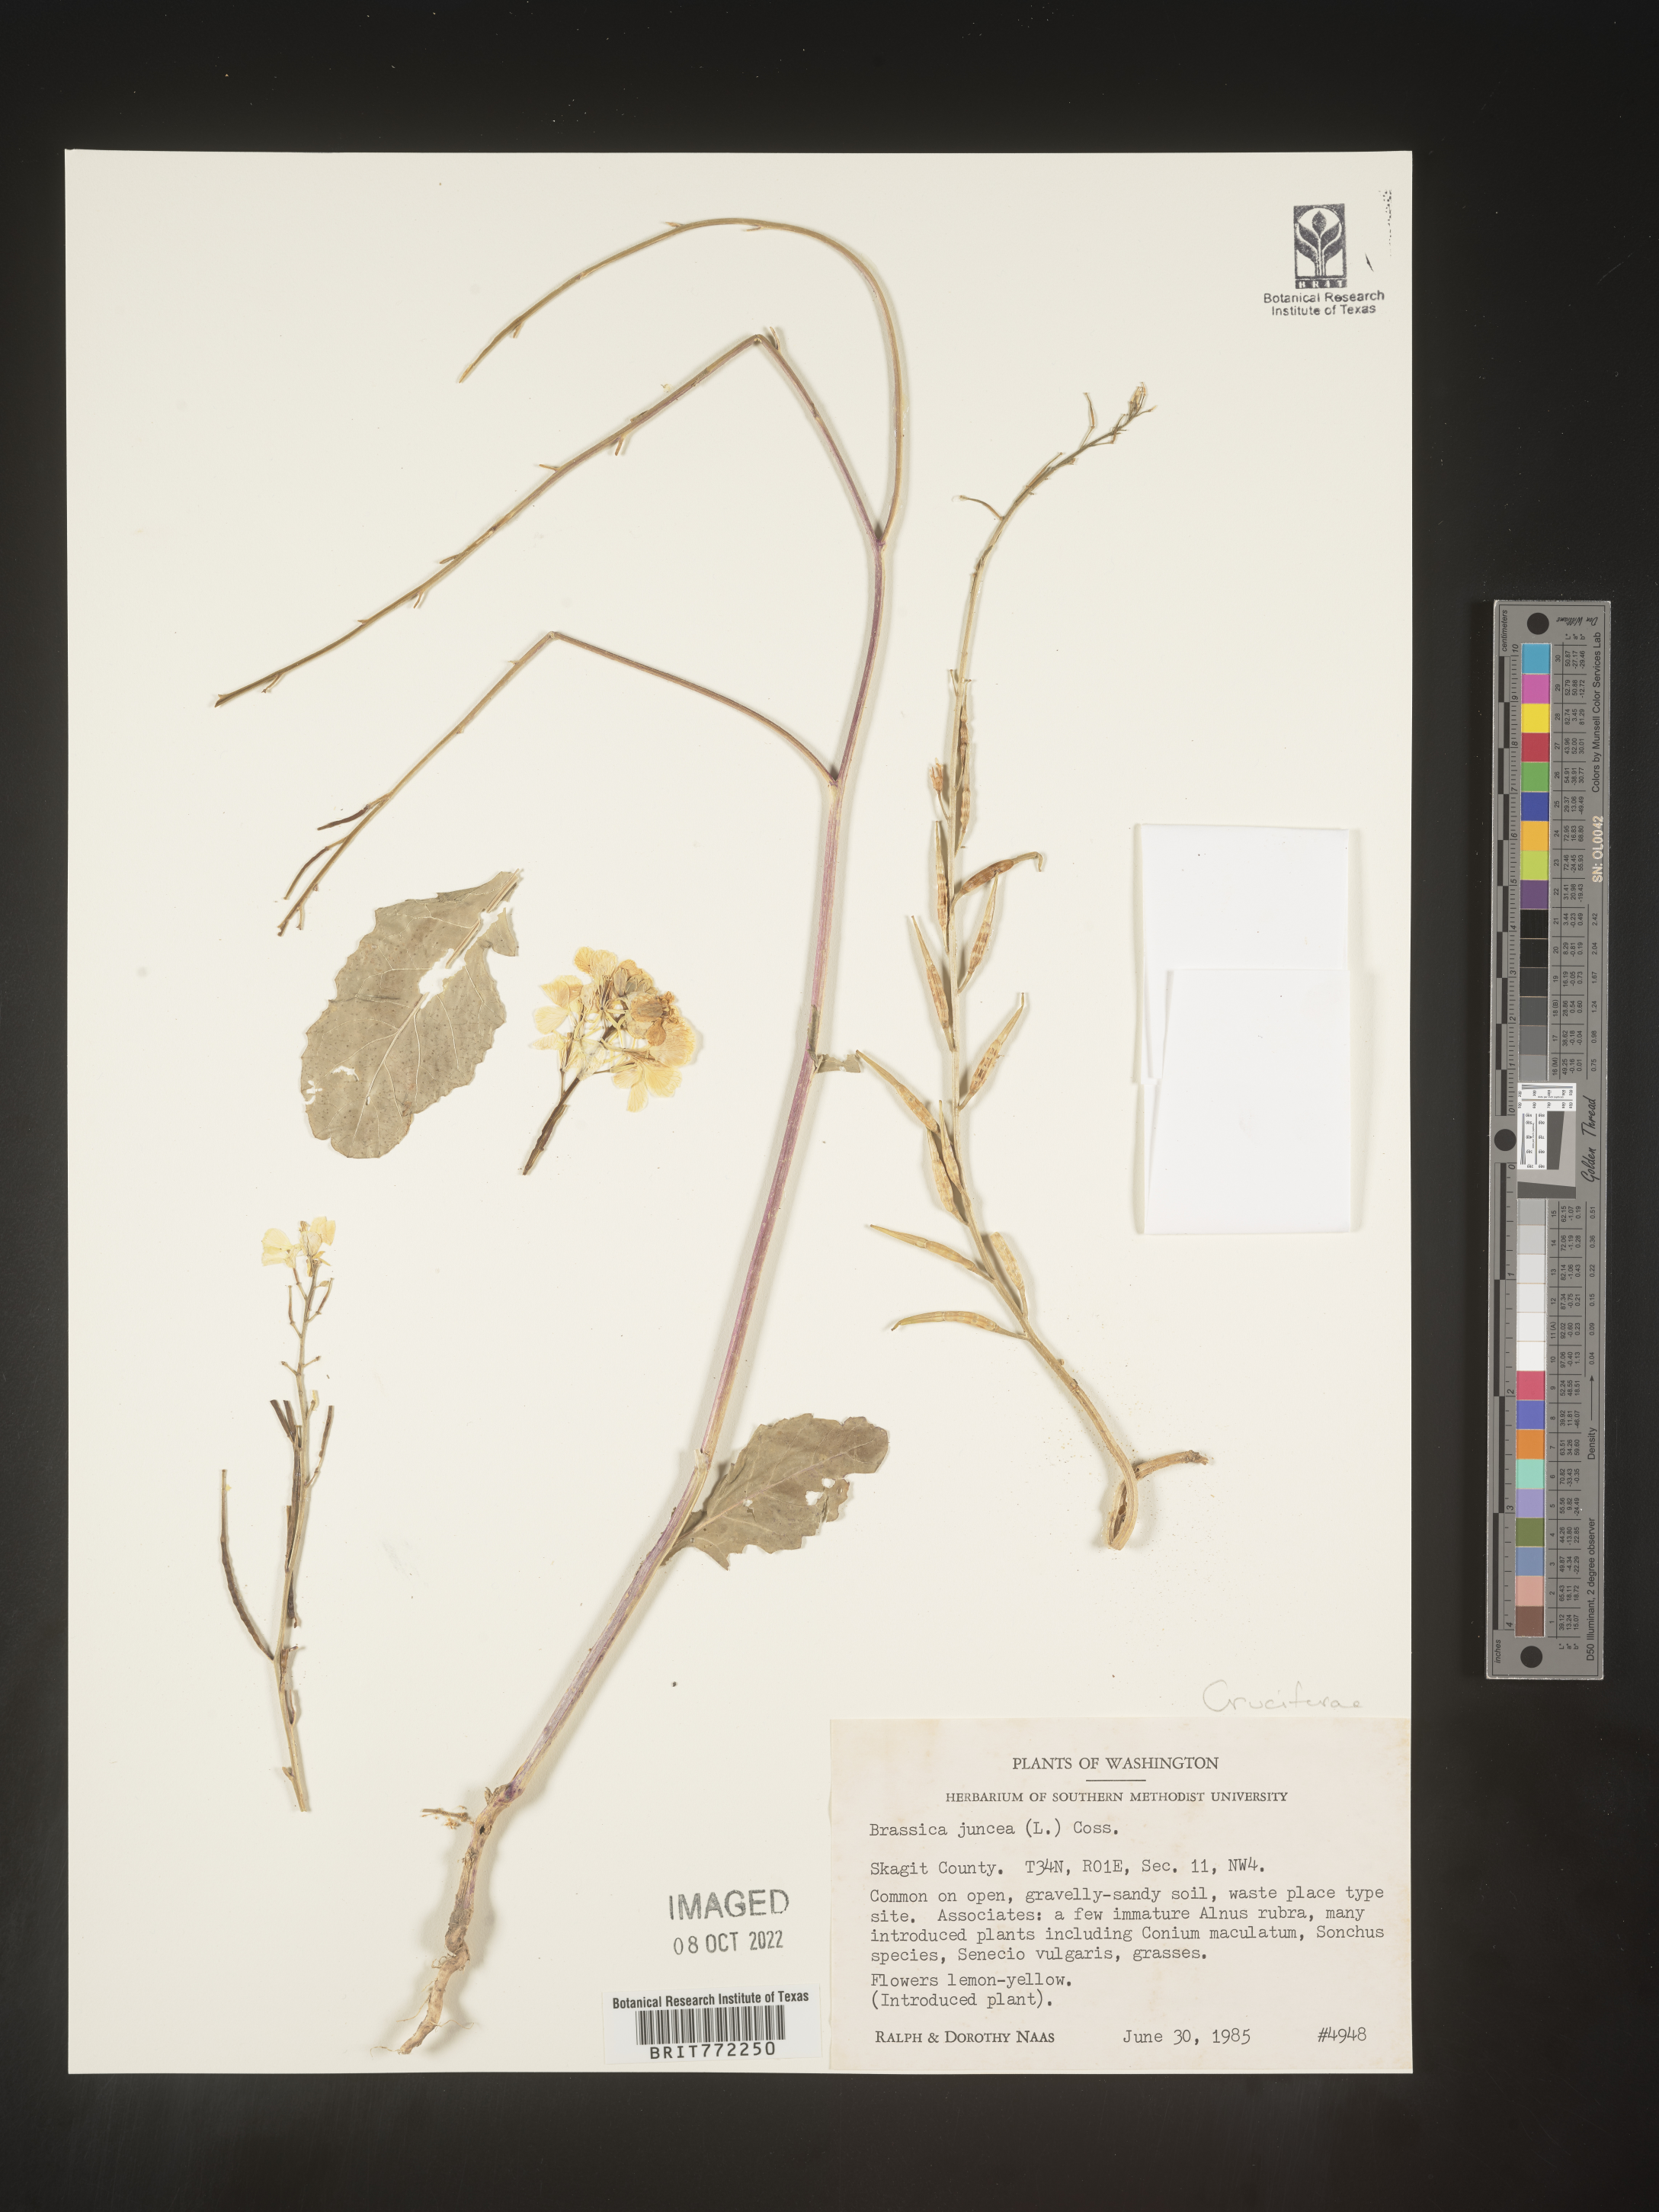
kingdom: Plantae
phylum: Tracheophyta
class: Magnoliopsida
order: Brassicales
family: Brassicaceae
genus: Brassica
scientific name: Brassica juncea
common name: Brown mustard
